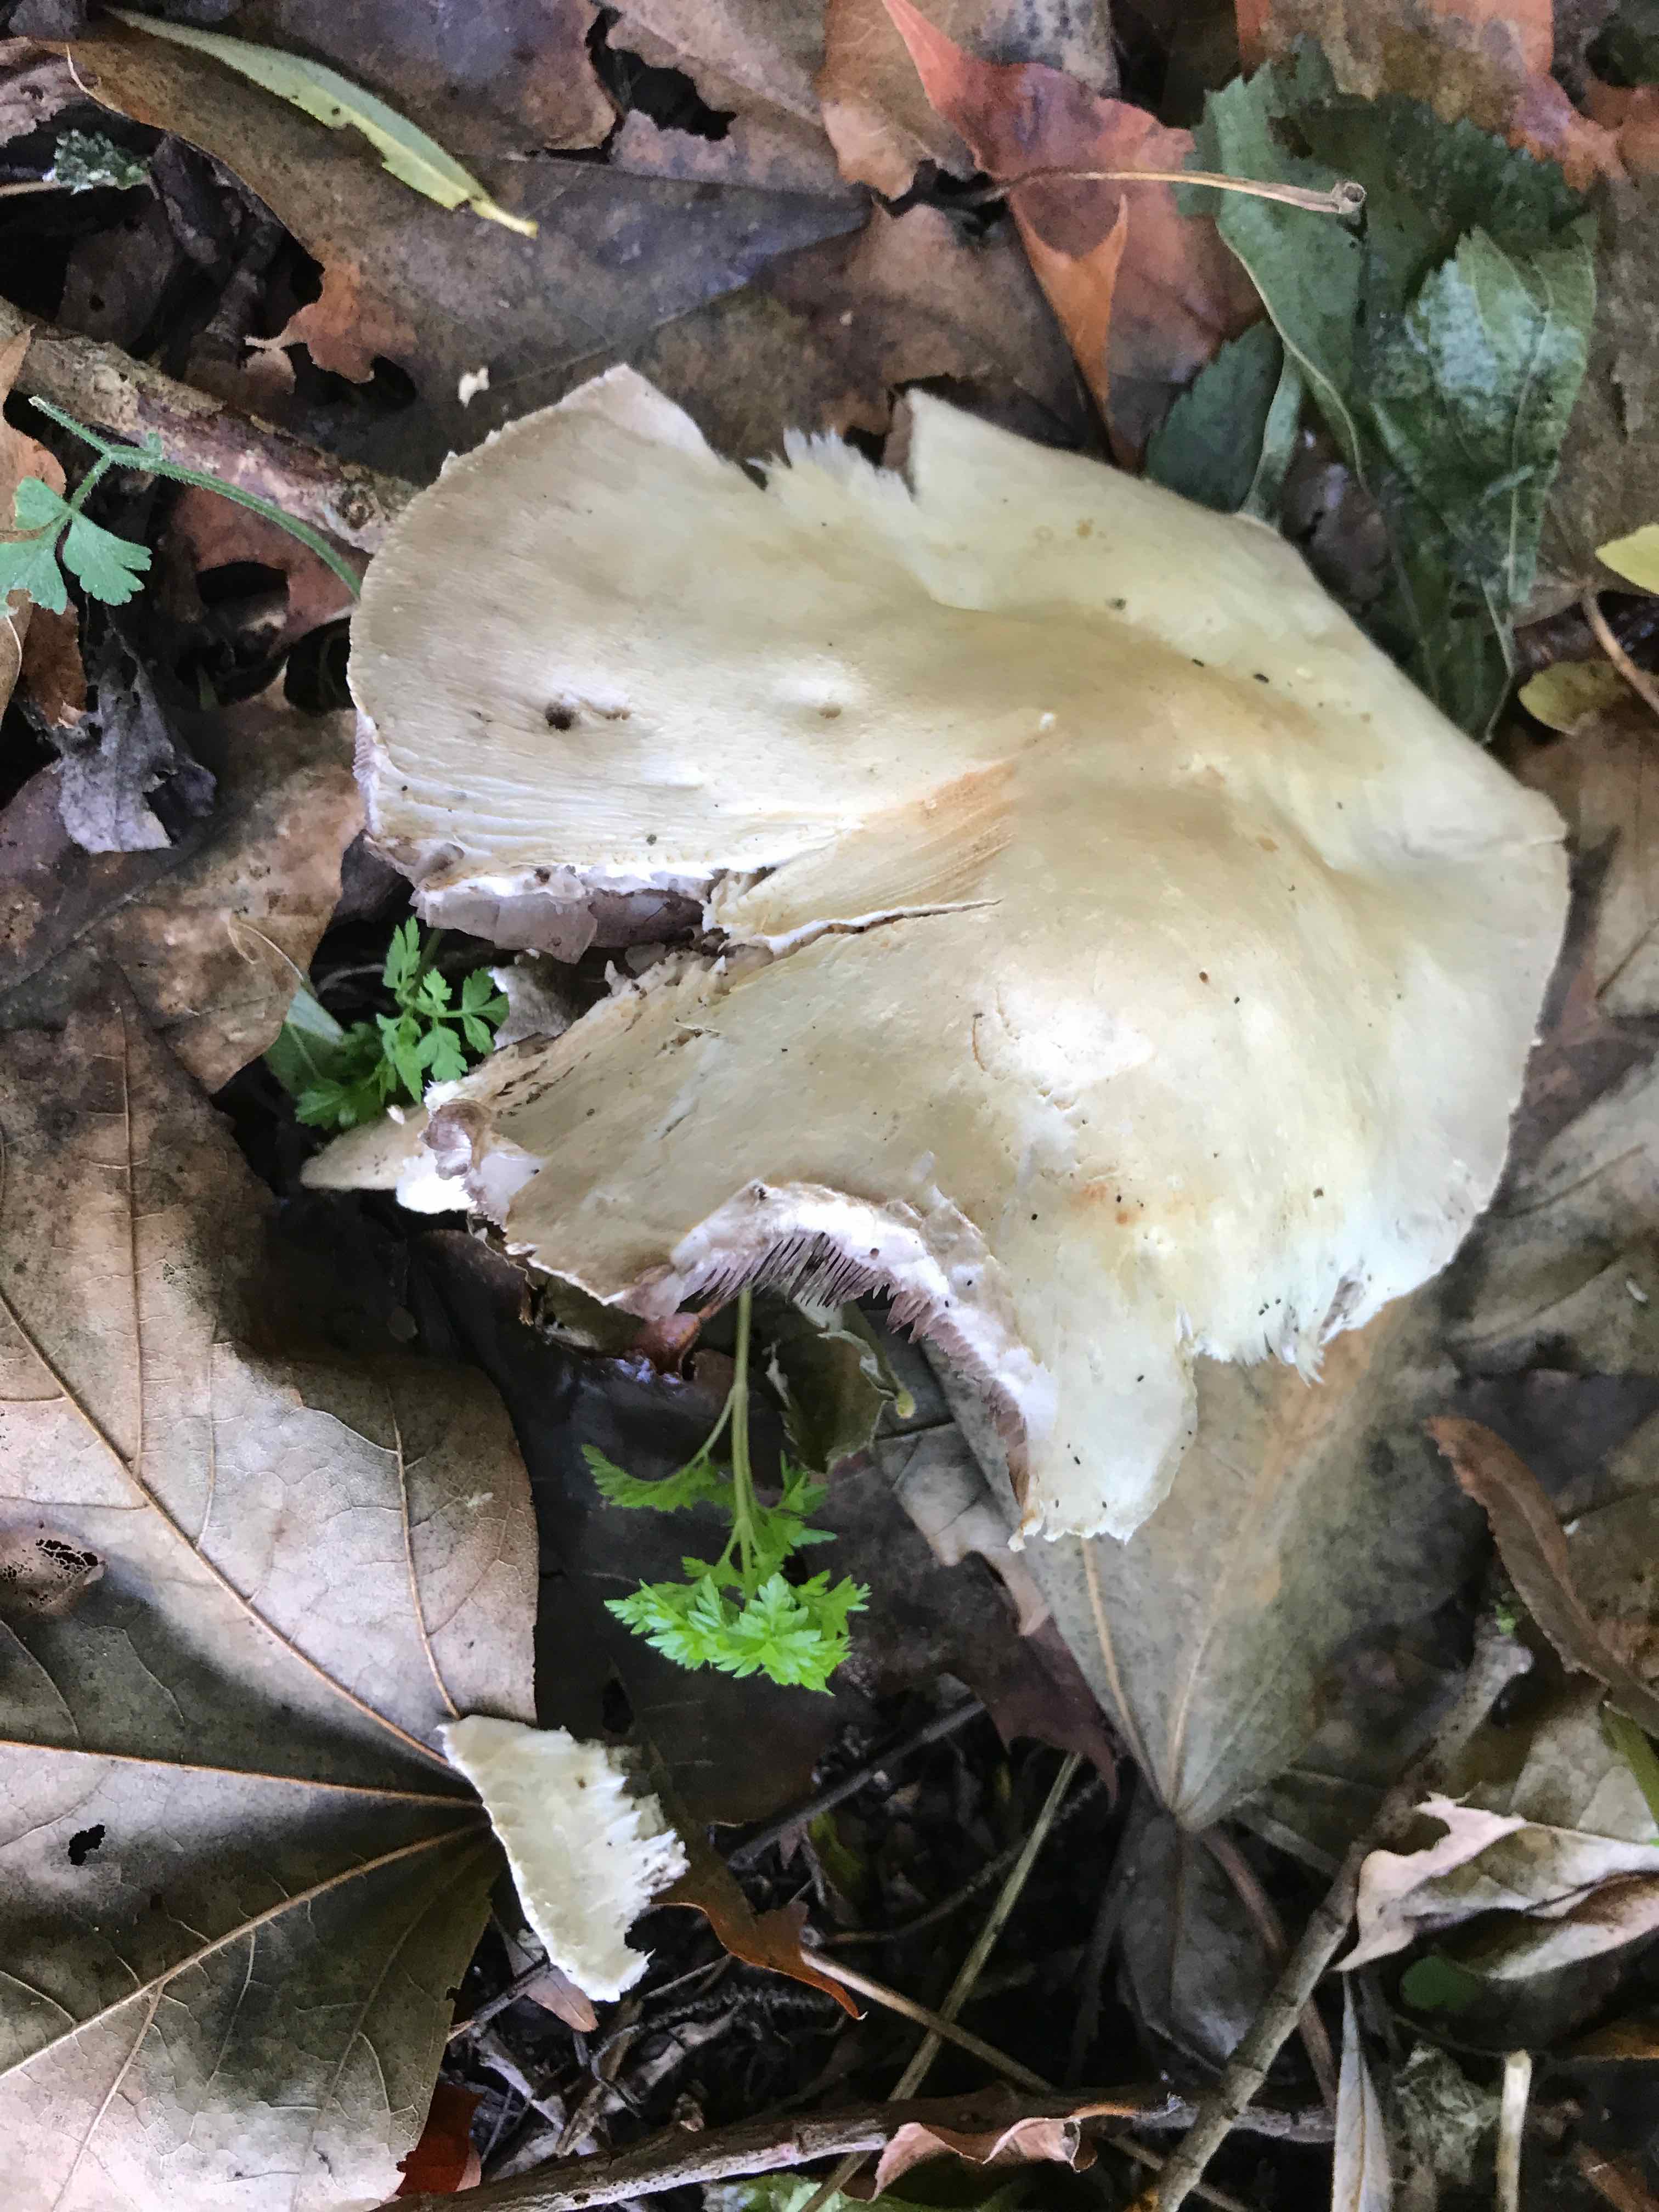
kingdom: Fungi
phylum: Basidiomycota
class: Agaricomycetes
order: Agaricales
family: Agaricaceae
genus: Agaricus
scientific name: Agaricus arvensis
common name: ager-champignon
